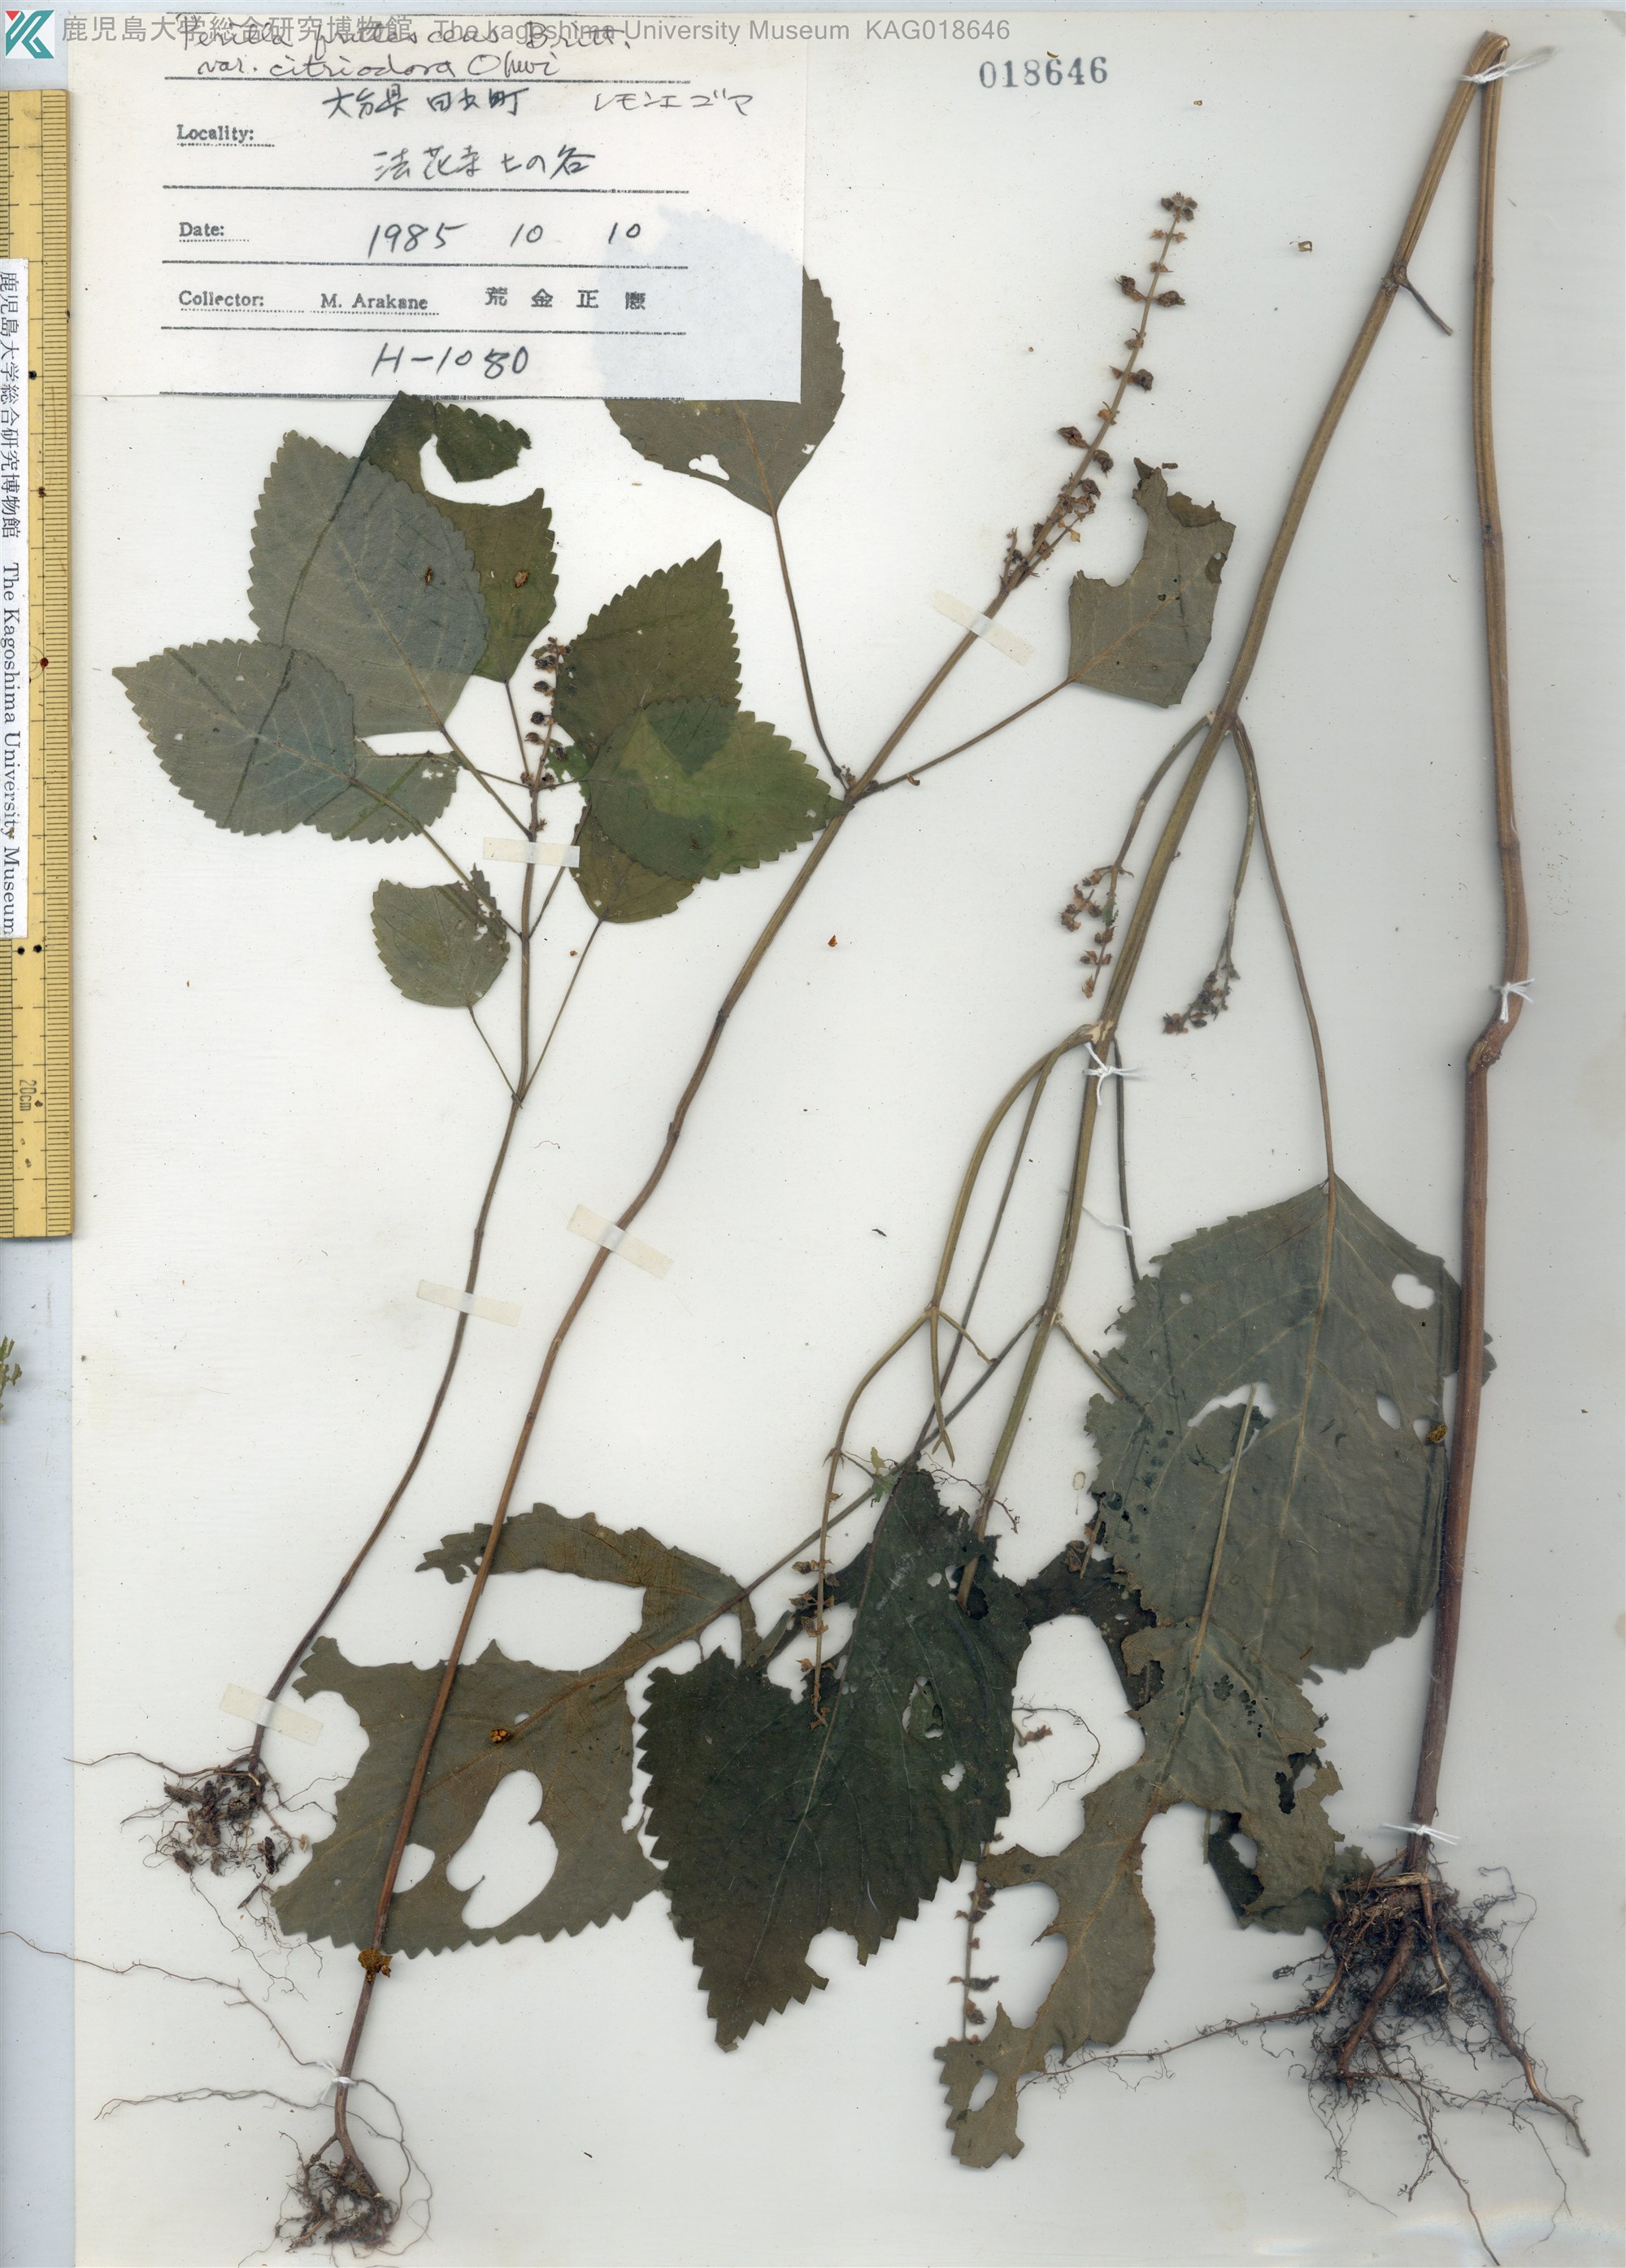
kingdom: Plantae
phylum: Tracheophyta
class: Magnoliopsida
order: Lamiales
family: Lamiaceae
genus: Perilla
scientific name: Perilla frutescens
